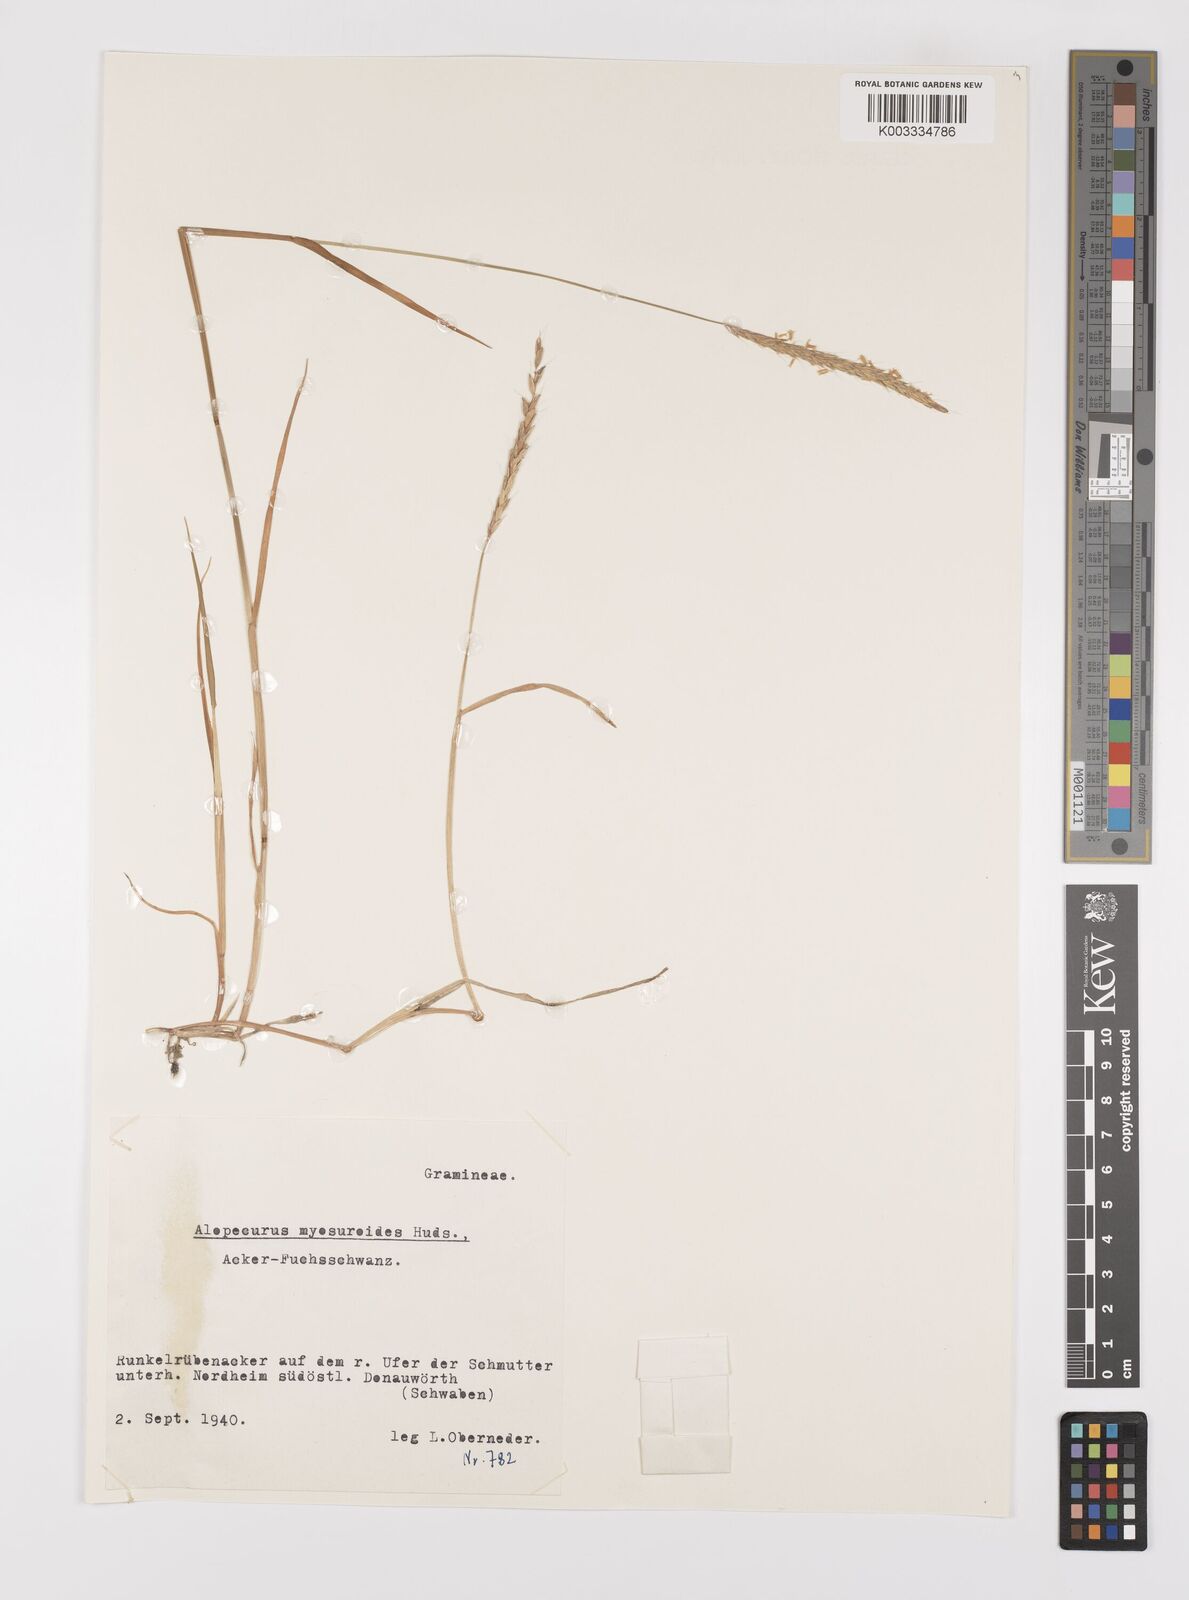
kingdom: Plantae
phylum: Tracheophyta
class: Liliopsida
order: Poales
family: Poaceae
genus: Alopecurus
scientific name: Alopecurus myosuroides
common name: Black-grass
